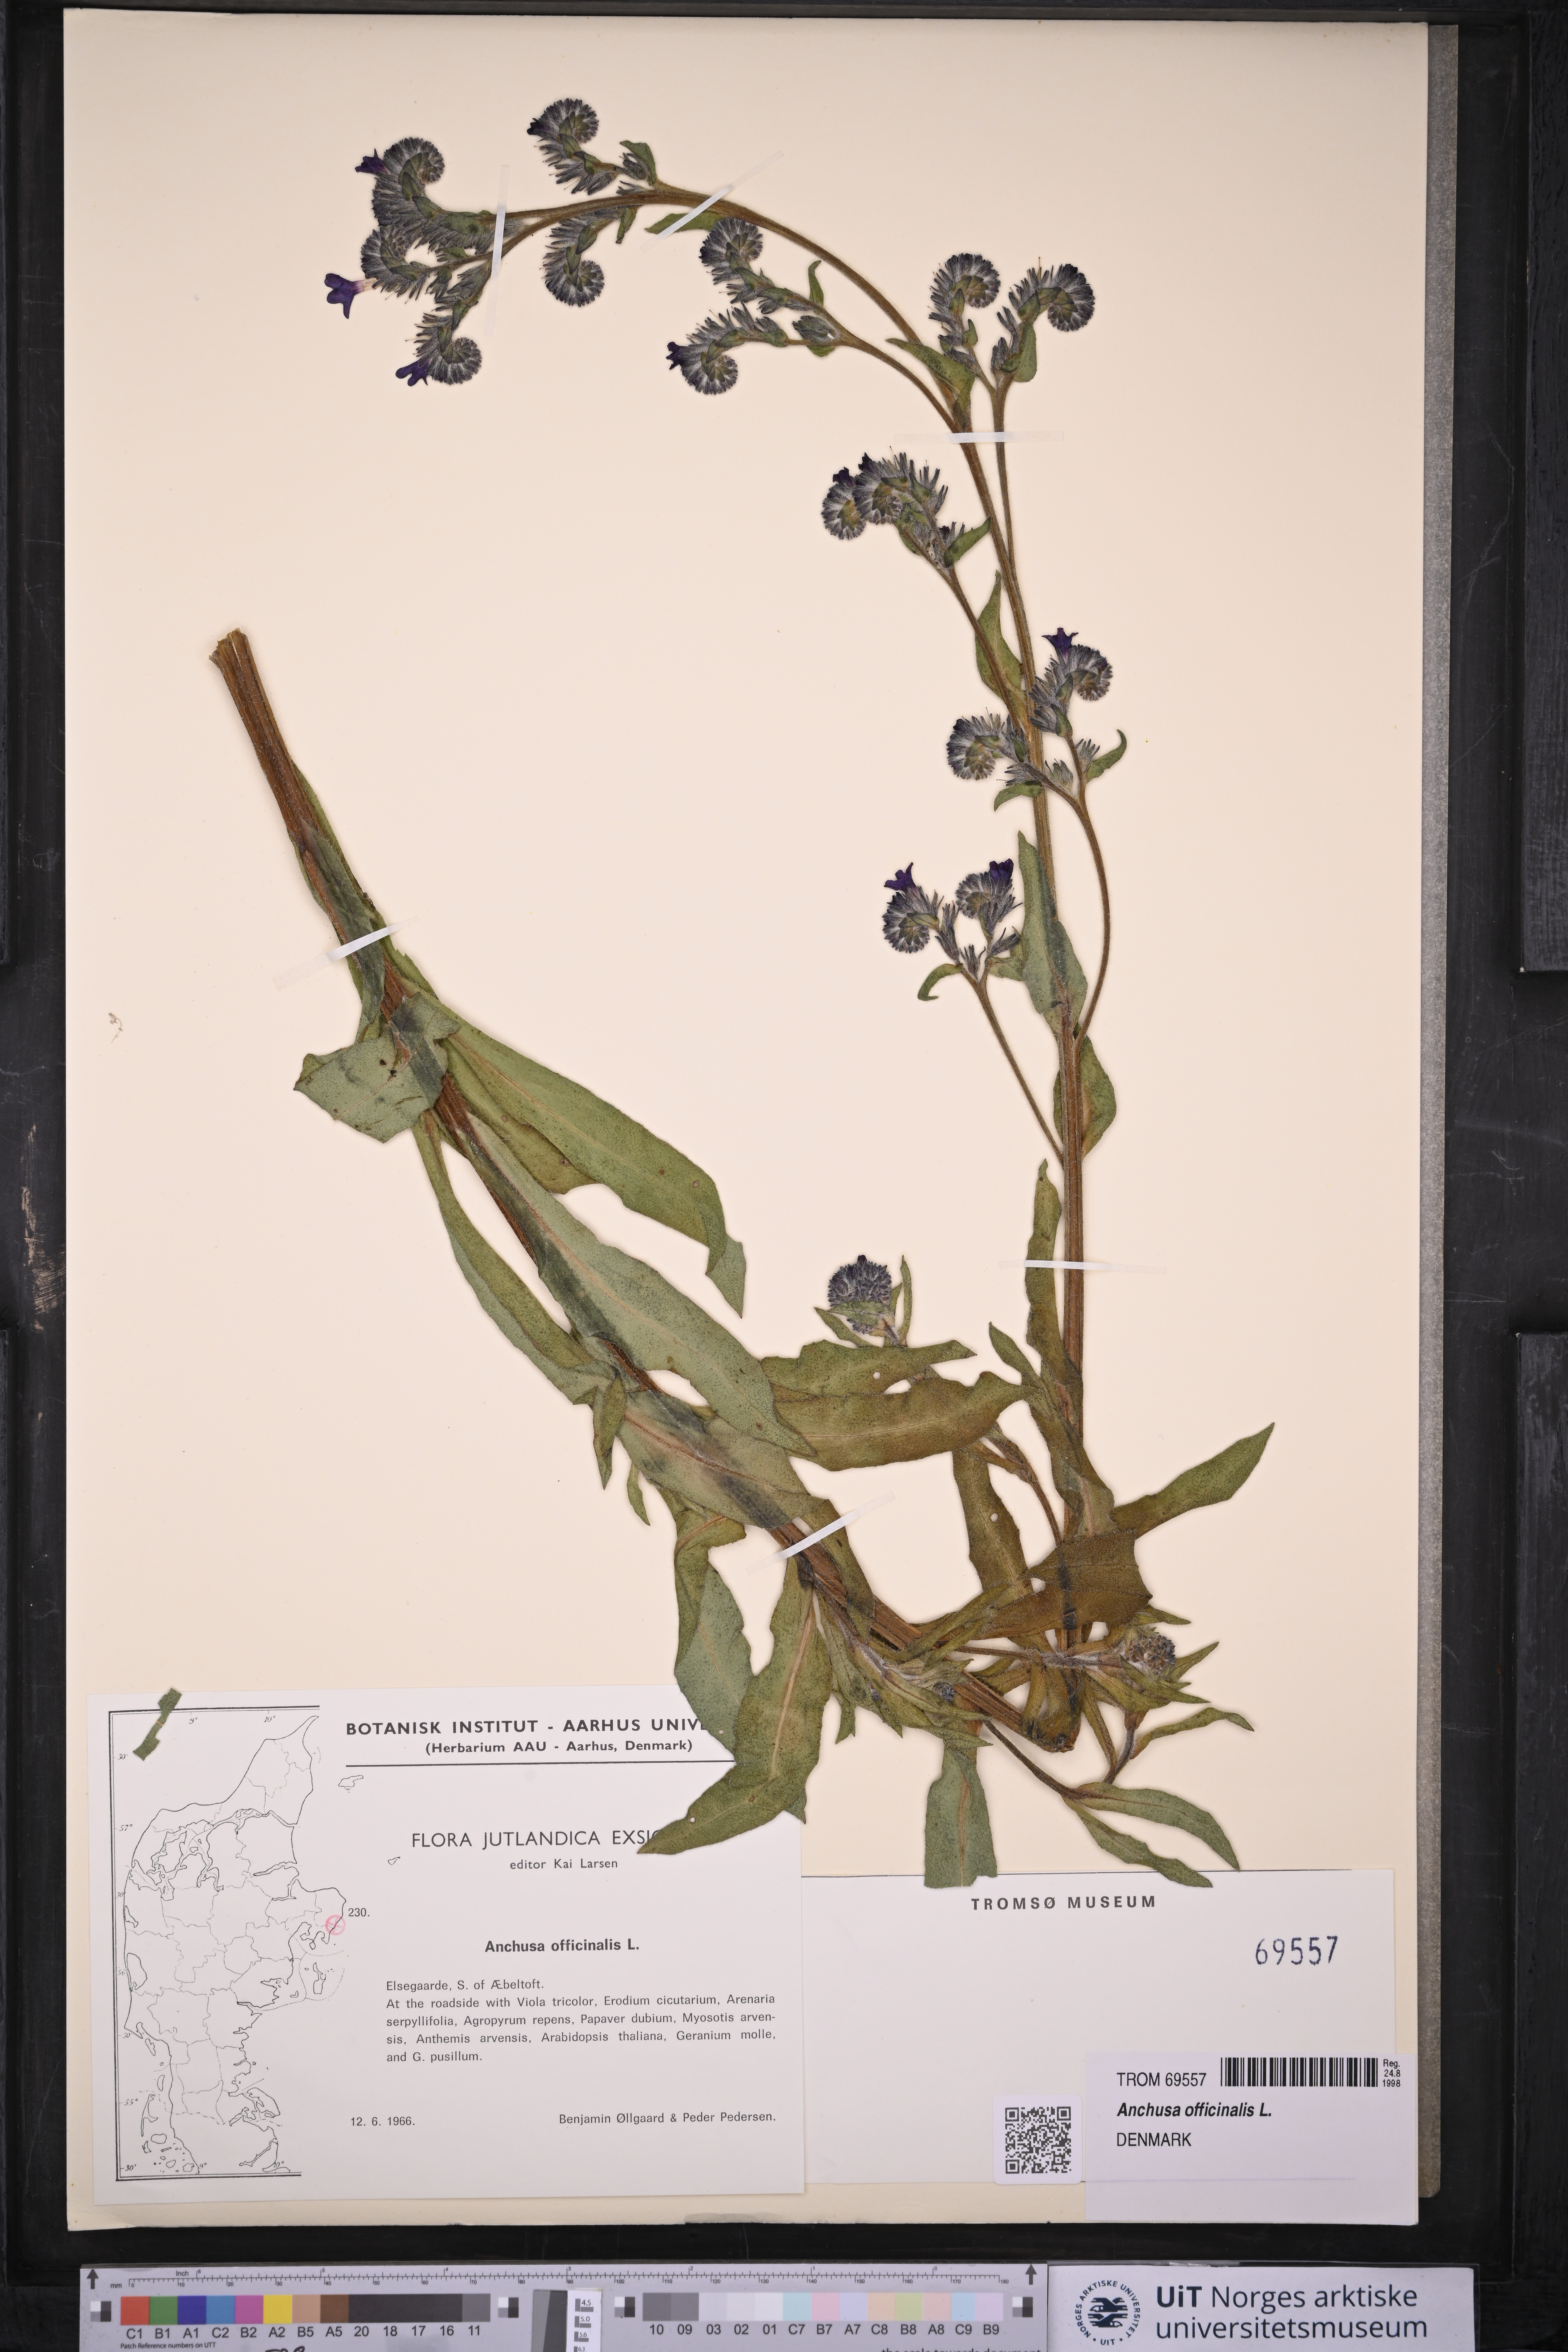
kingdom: Plantae
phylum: Tracheophyta
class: Magnoliopsida
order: Boraginales
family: Boraginaceae
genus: Anchusa
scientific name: Anchusa officinalis
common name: Alkanet
